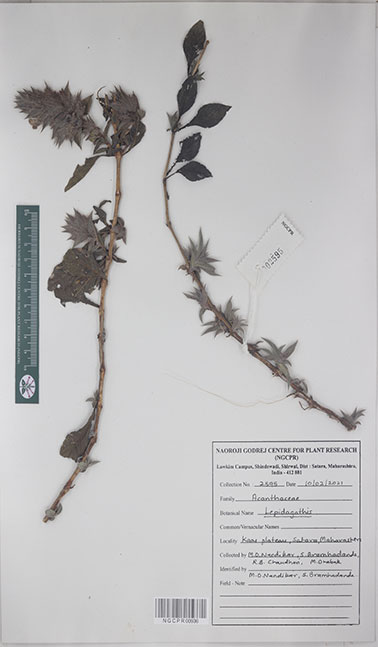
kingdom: Plantae
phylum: Tracheophyta
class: Magnoliopsida
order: Lamiales
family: Acanthaceae
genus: Lepidagathis
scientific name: Lepidagathis
